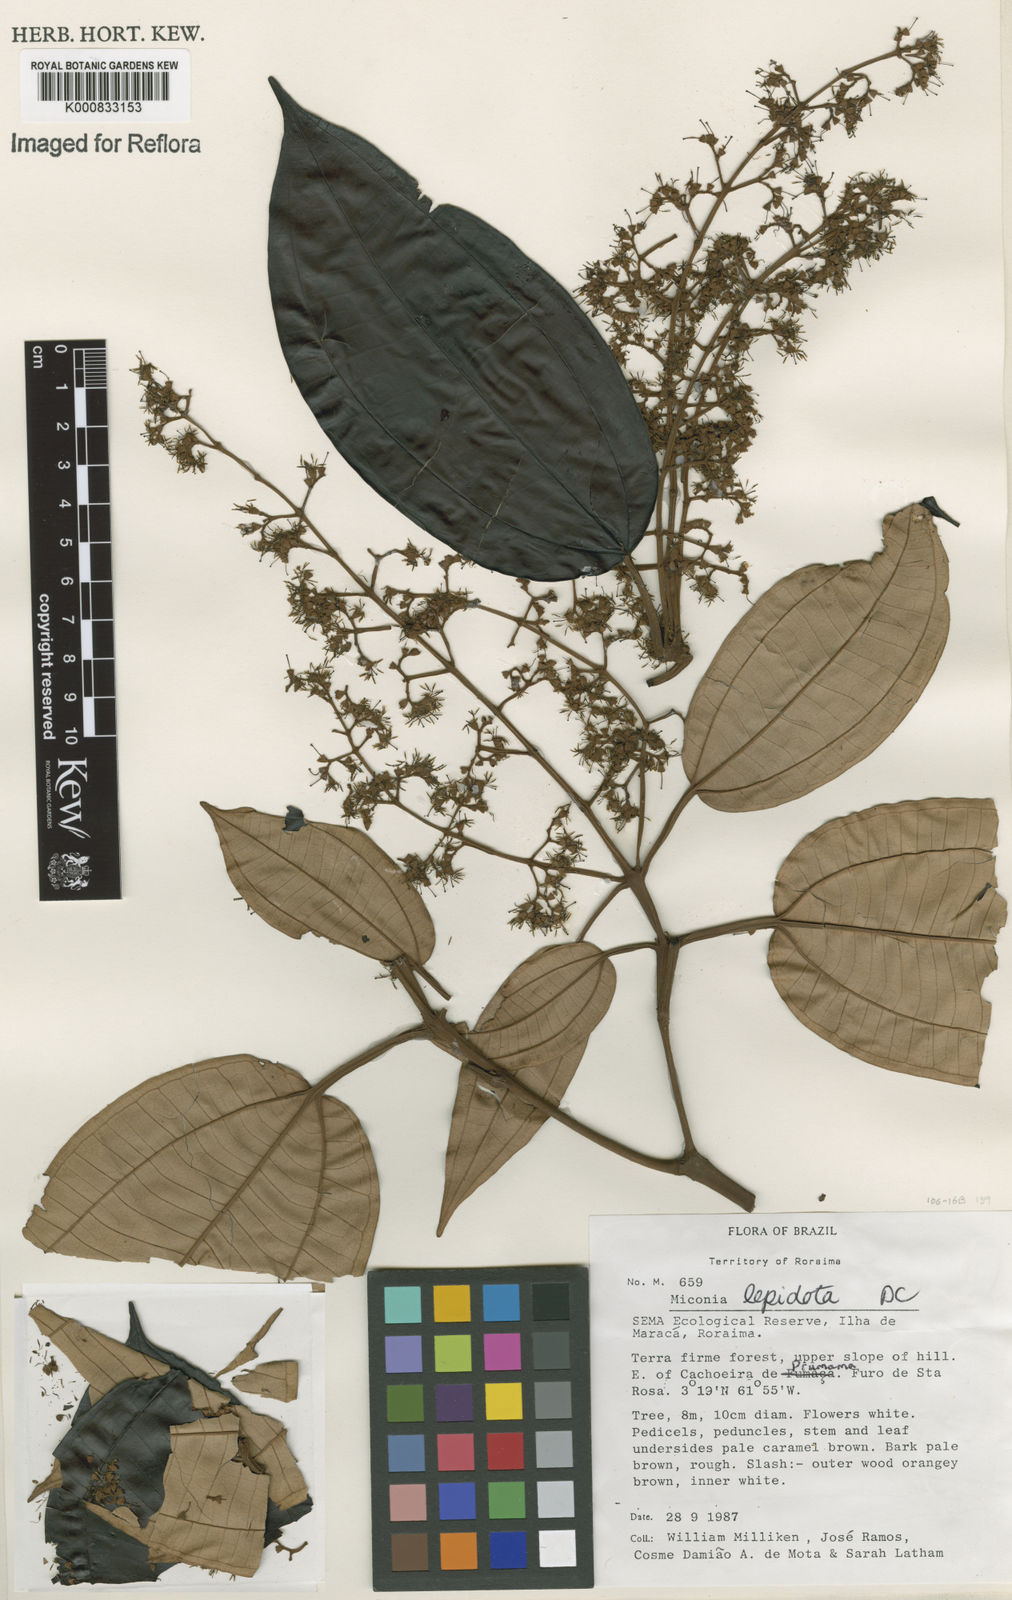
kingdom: Plantae
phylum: Tracheophyta
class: Magnoliopsida
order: Myrtales
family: Melastomataceae
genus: Miconia
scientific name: Miconia lepidota
